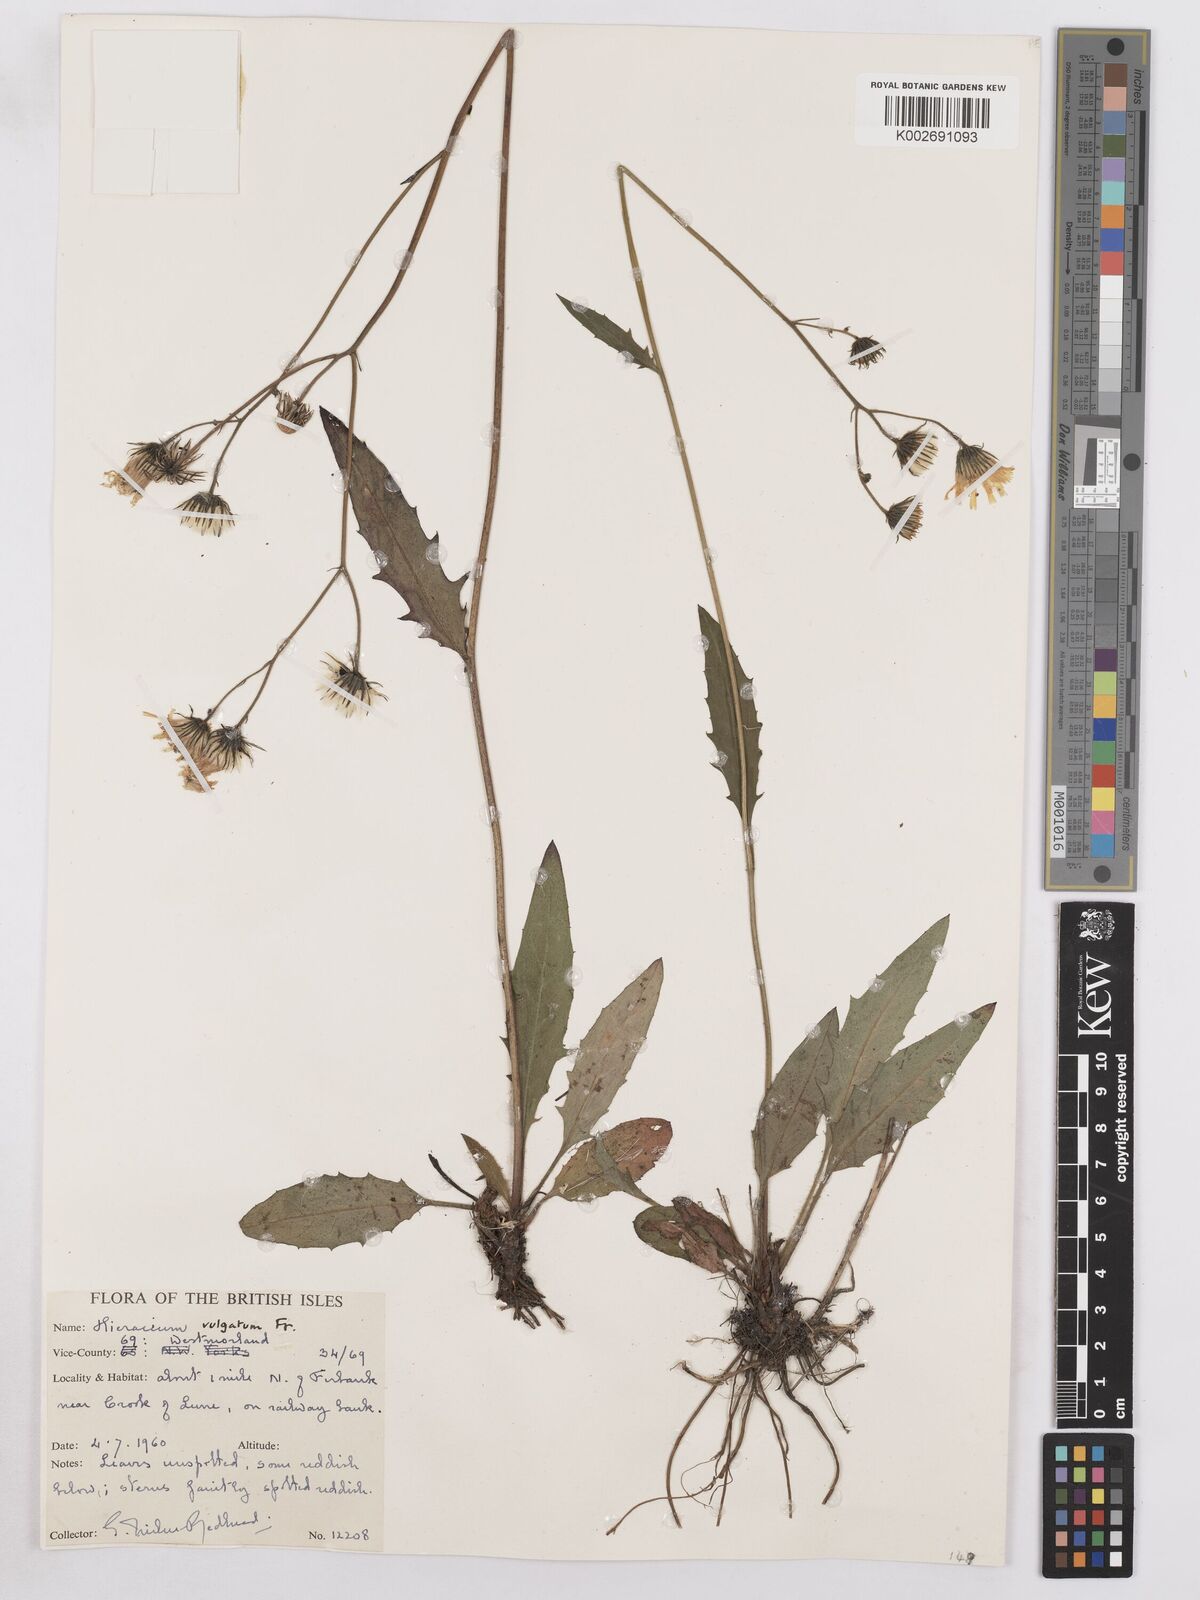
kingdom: Plantae
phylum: Tracheophyta
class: Magnoliopsida
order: Asterales
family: Asteraceae
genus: Hieracium
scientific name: Hieracium lachenalii
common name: Common hawkweed
